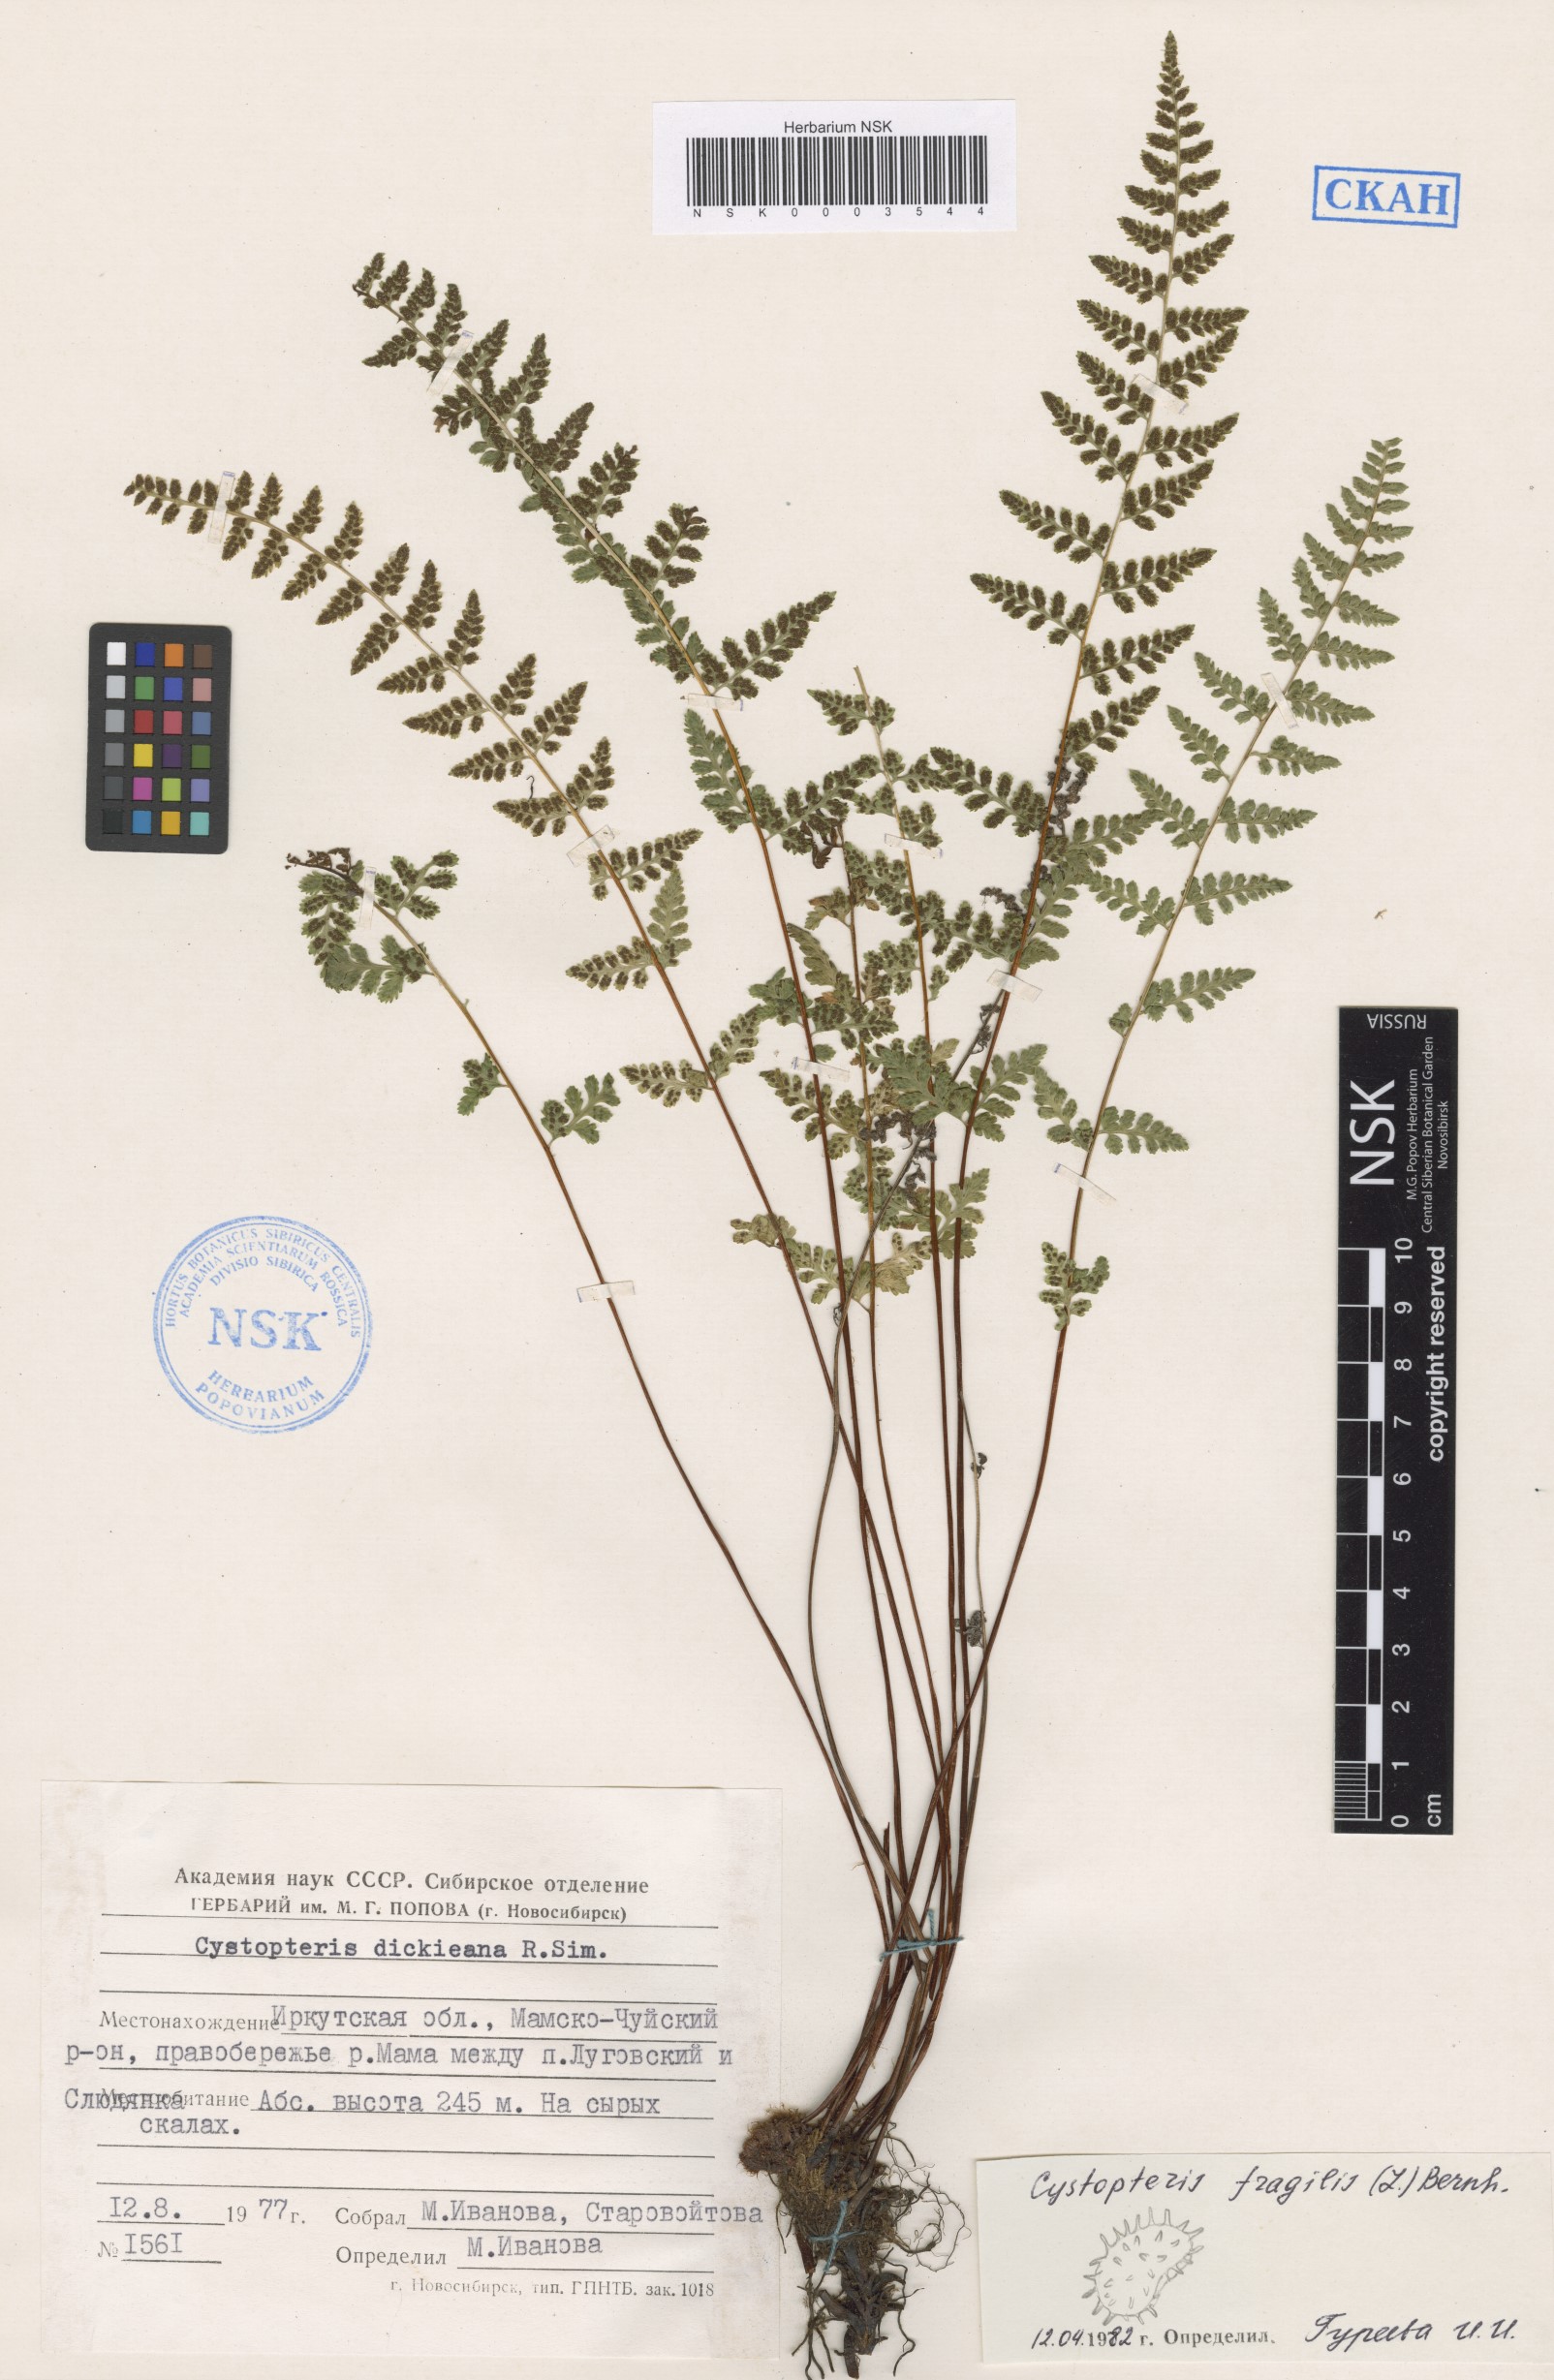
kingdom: Plantae
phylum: Tracheophyta
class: Polypodiopsida
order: Polypodiales
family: Cystopteridaceae
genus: Cystopteris
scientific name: Cystopteris fragilis
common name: Brittle bladder fern
